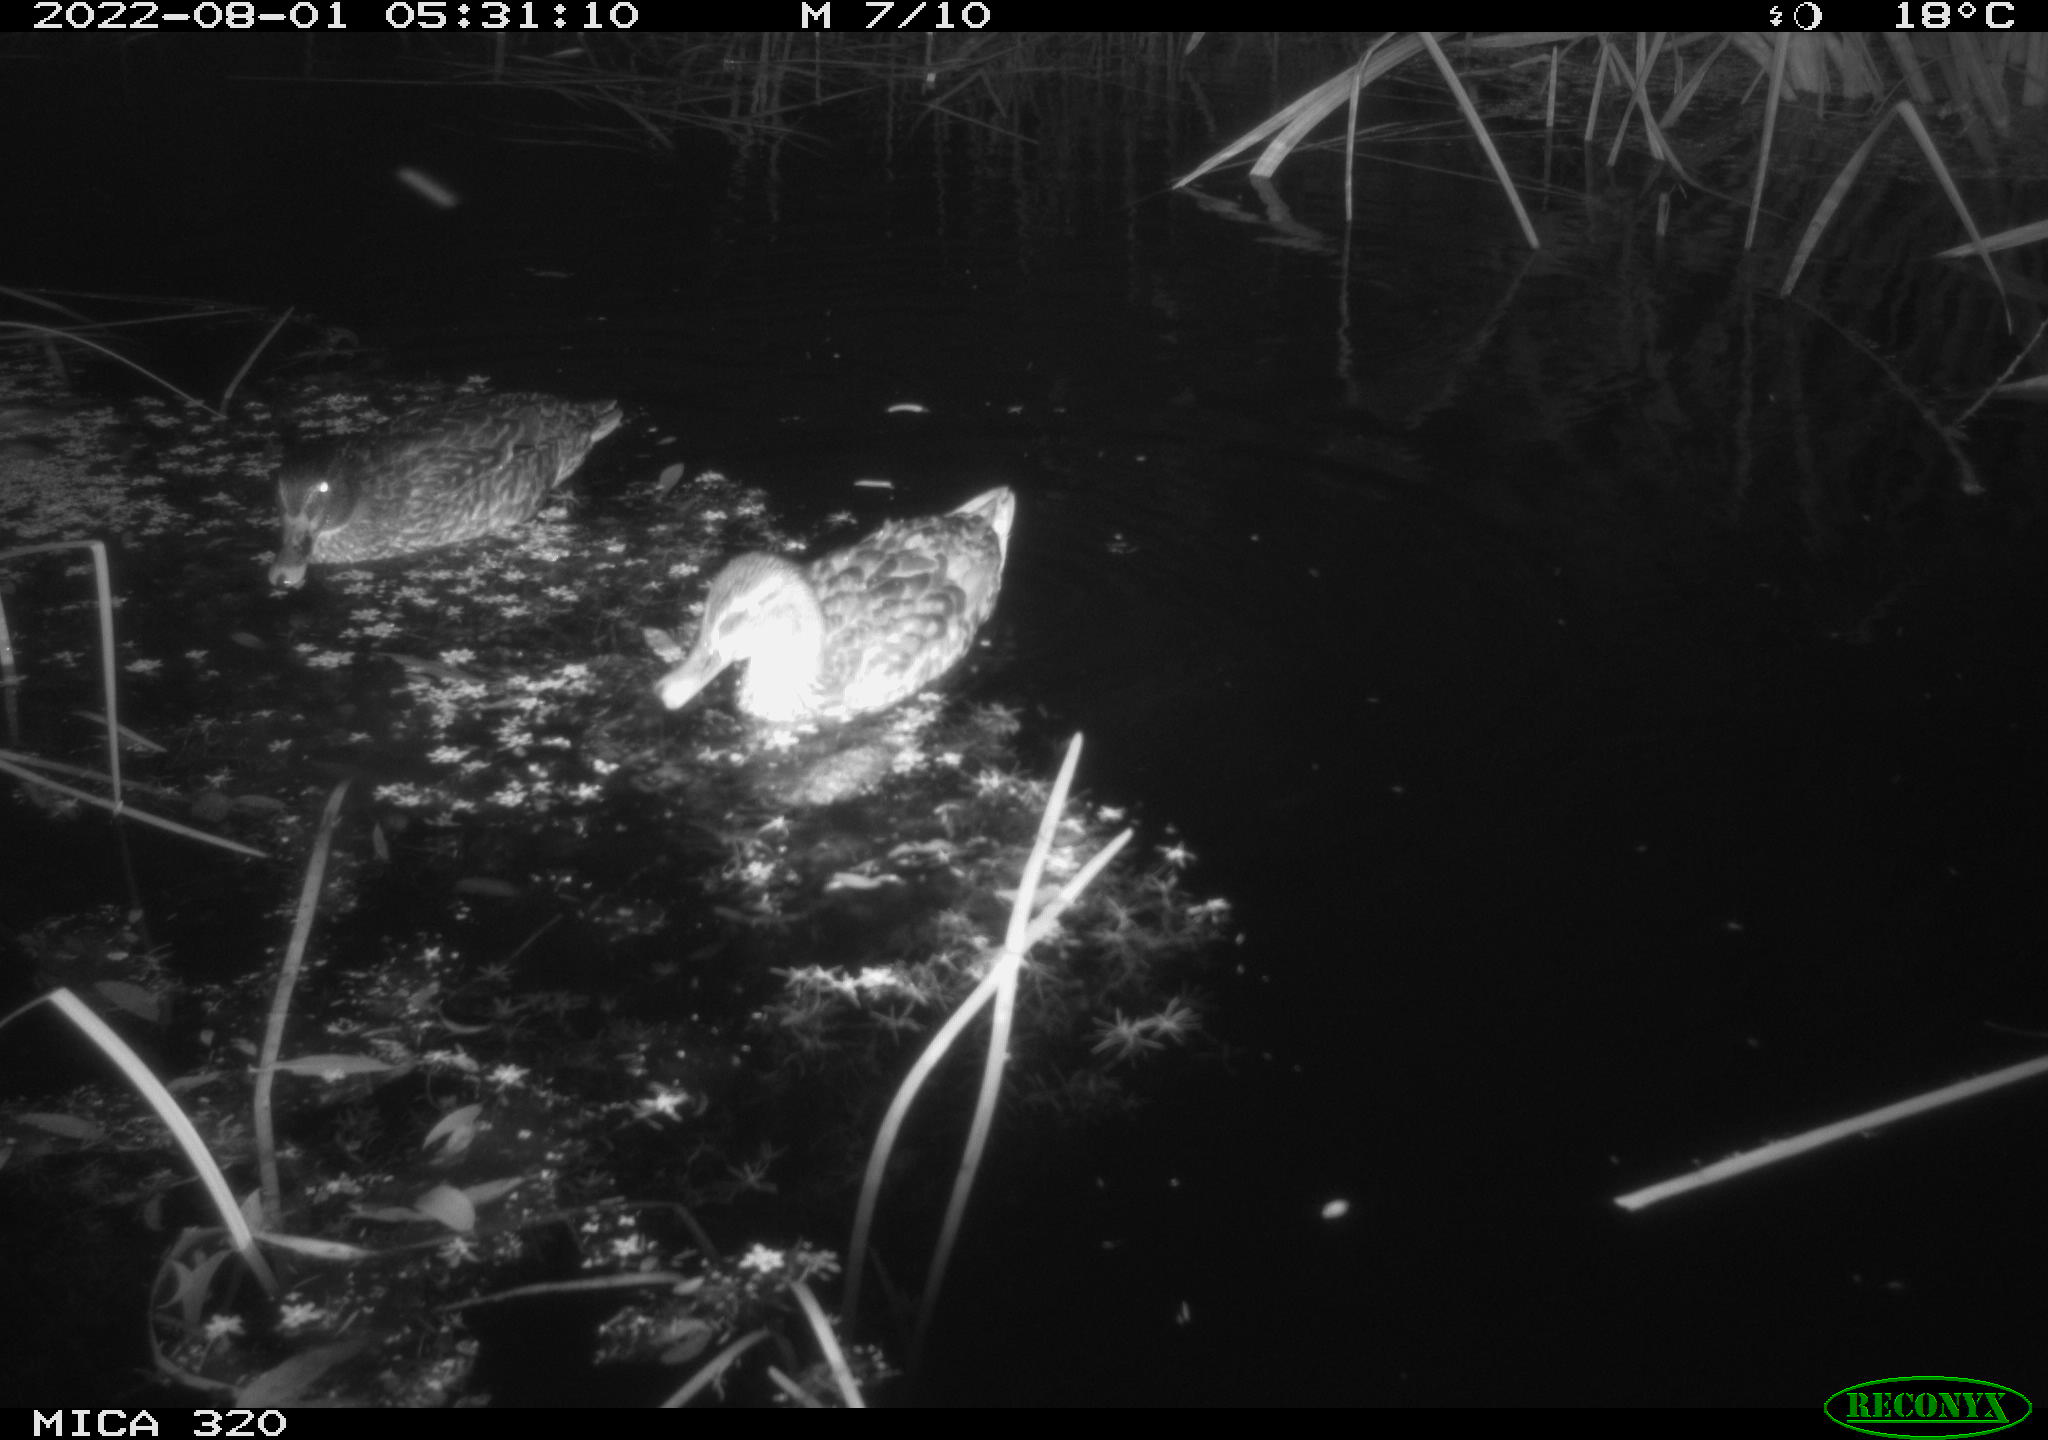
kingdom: Animalia
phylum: Chordata
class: Aves
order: Anseriformes
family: Anatidae
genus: Mareca
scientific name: Mareca strepera
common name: Gadwall
